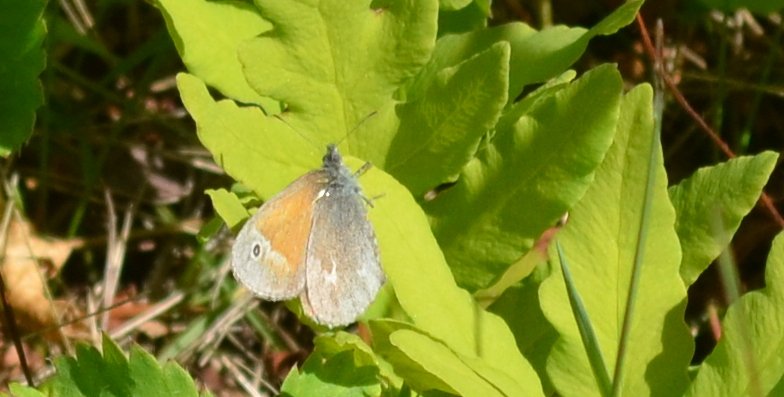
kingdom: Animalia
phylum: Arthropoda
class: Insecta
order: Lepidoptera
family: Nymphalidae
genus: Coenonympha
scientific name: Coenonympha tullia
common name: Large Heath
